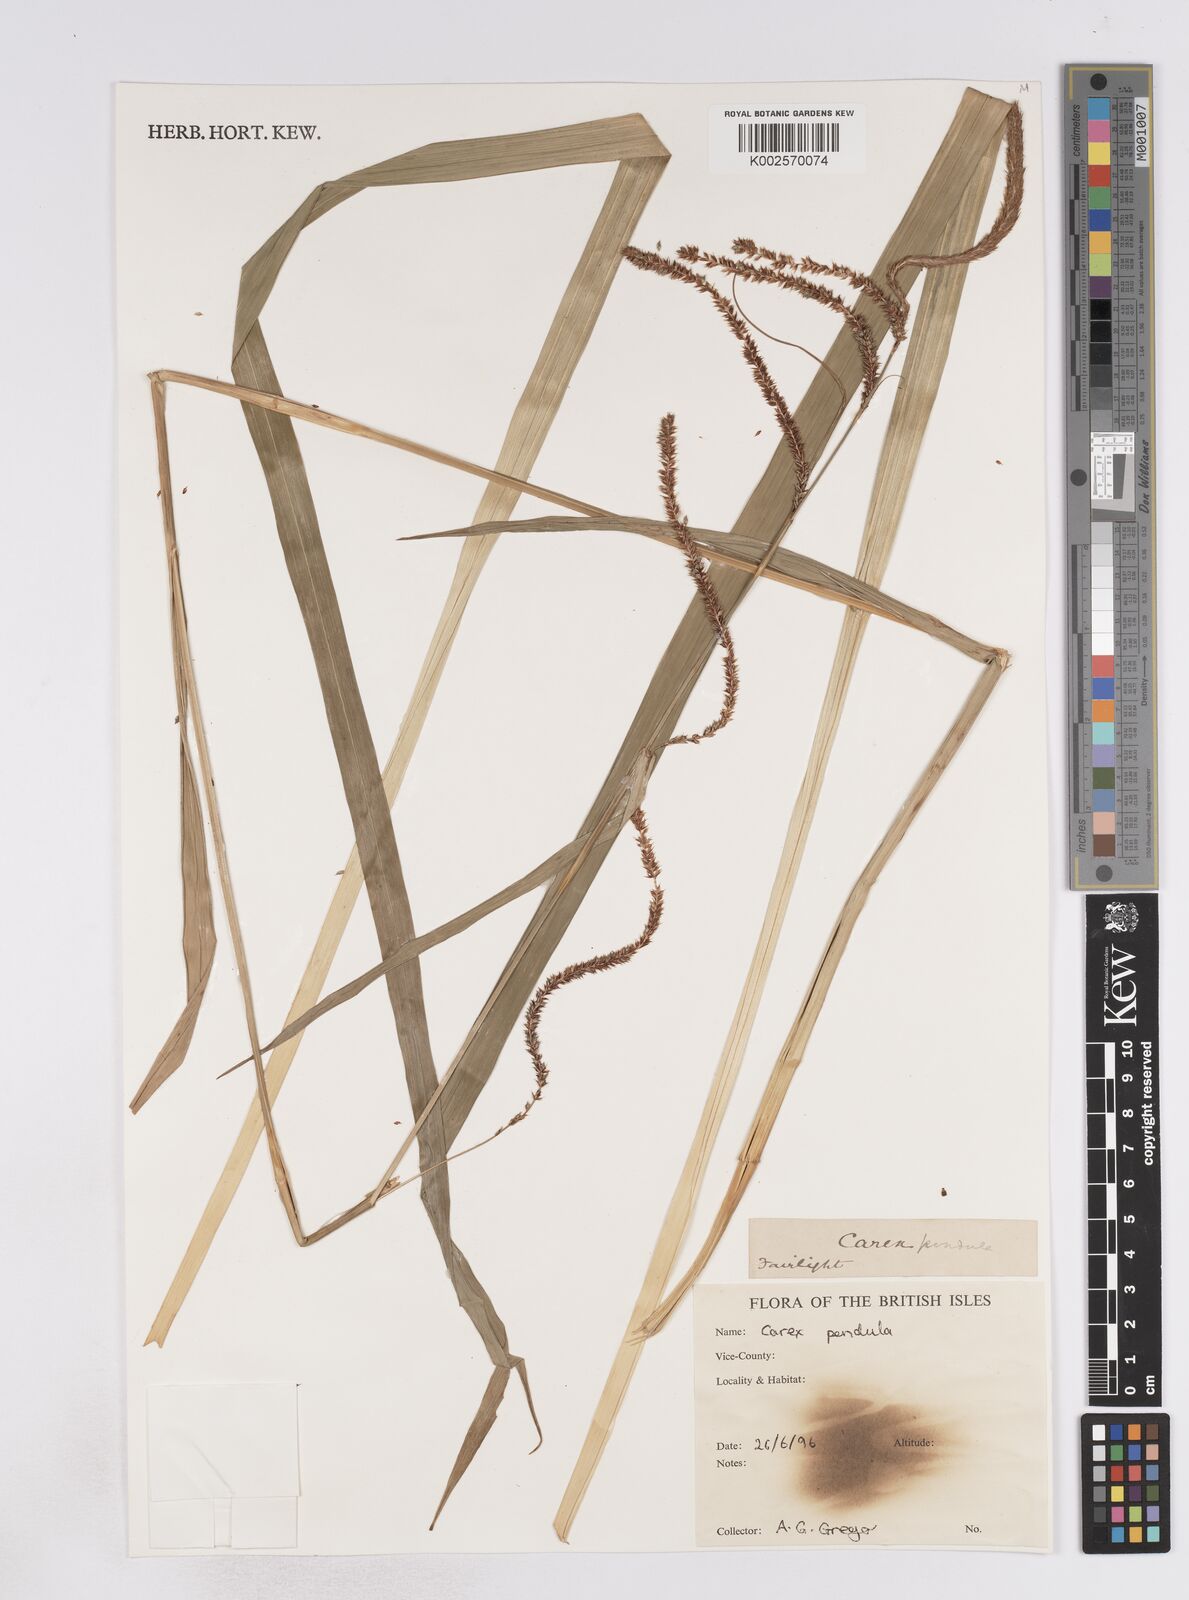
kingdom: Plantae
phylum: Tracheophyta
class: Liliopsida
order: Poales
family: Cyperaceae
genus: Carex
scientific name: Carex pendula
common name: Pendulous sedge
